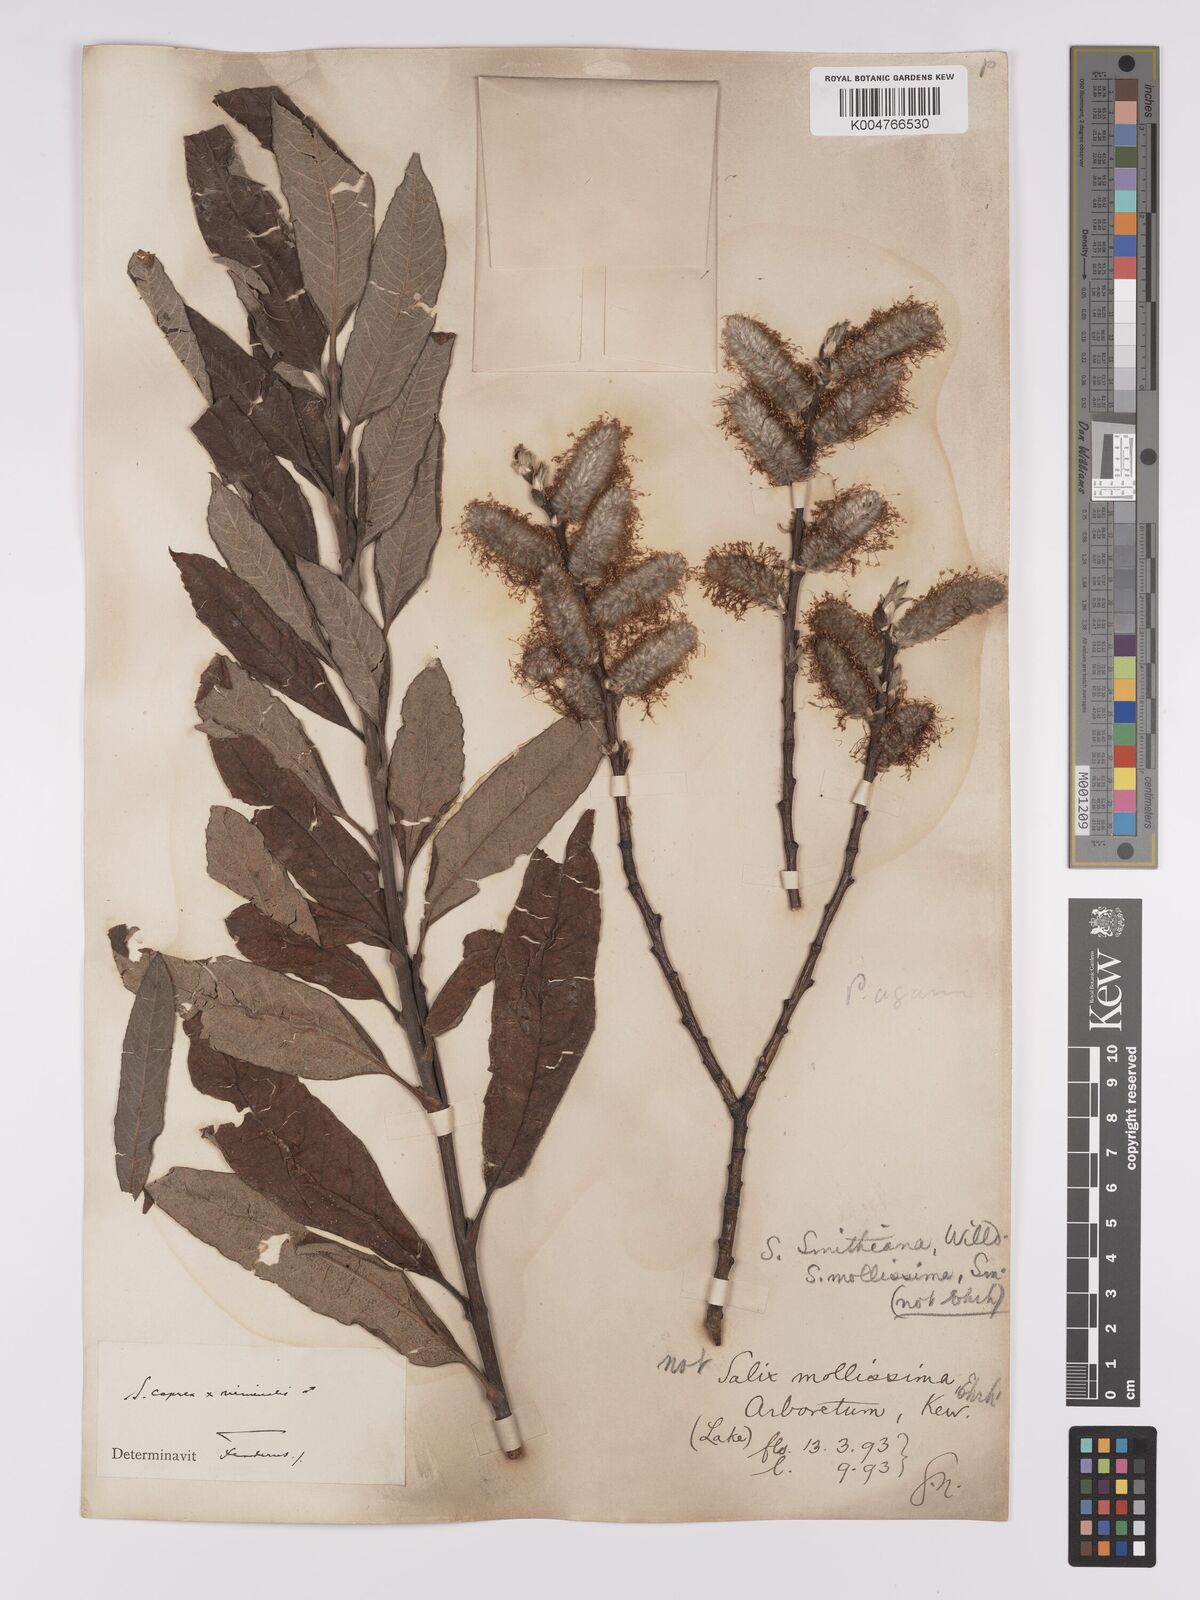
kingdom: Plantae
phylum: Tracheophyta
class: Magnoliopsida
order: Malpighiales
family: Salicaceae
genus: Salix
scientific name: Salix caprea
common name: Goat willow
